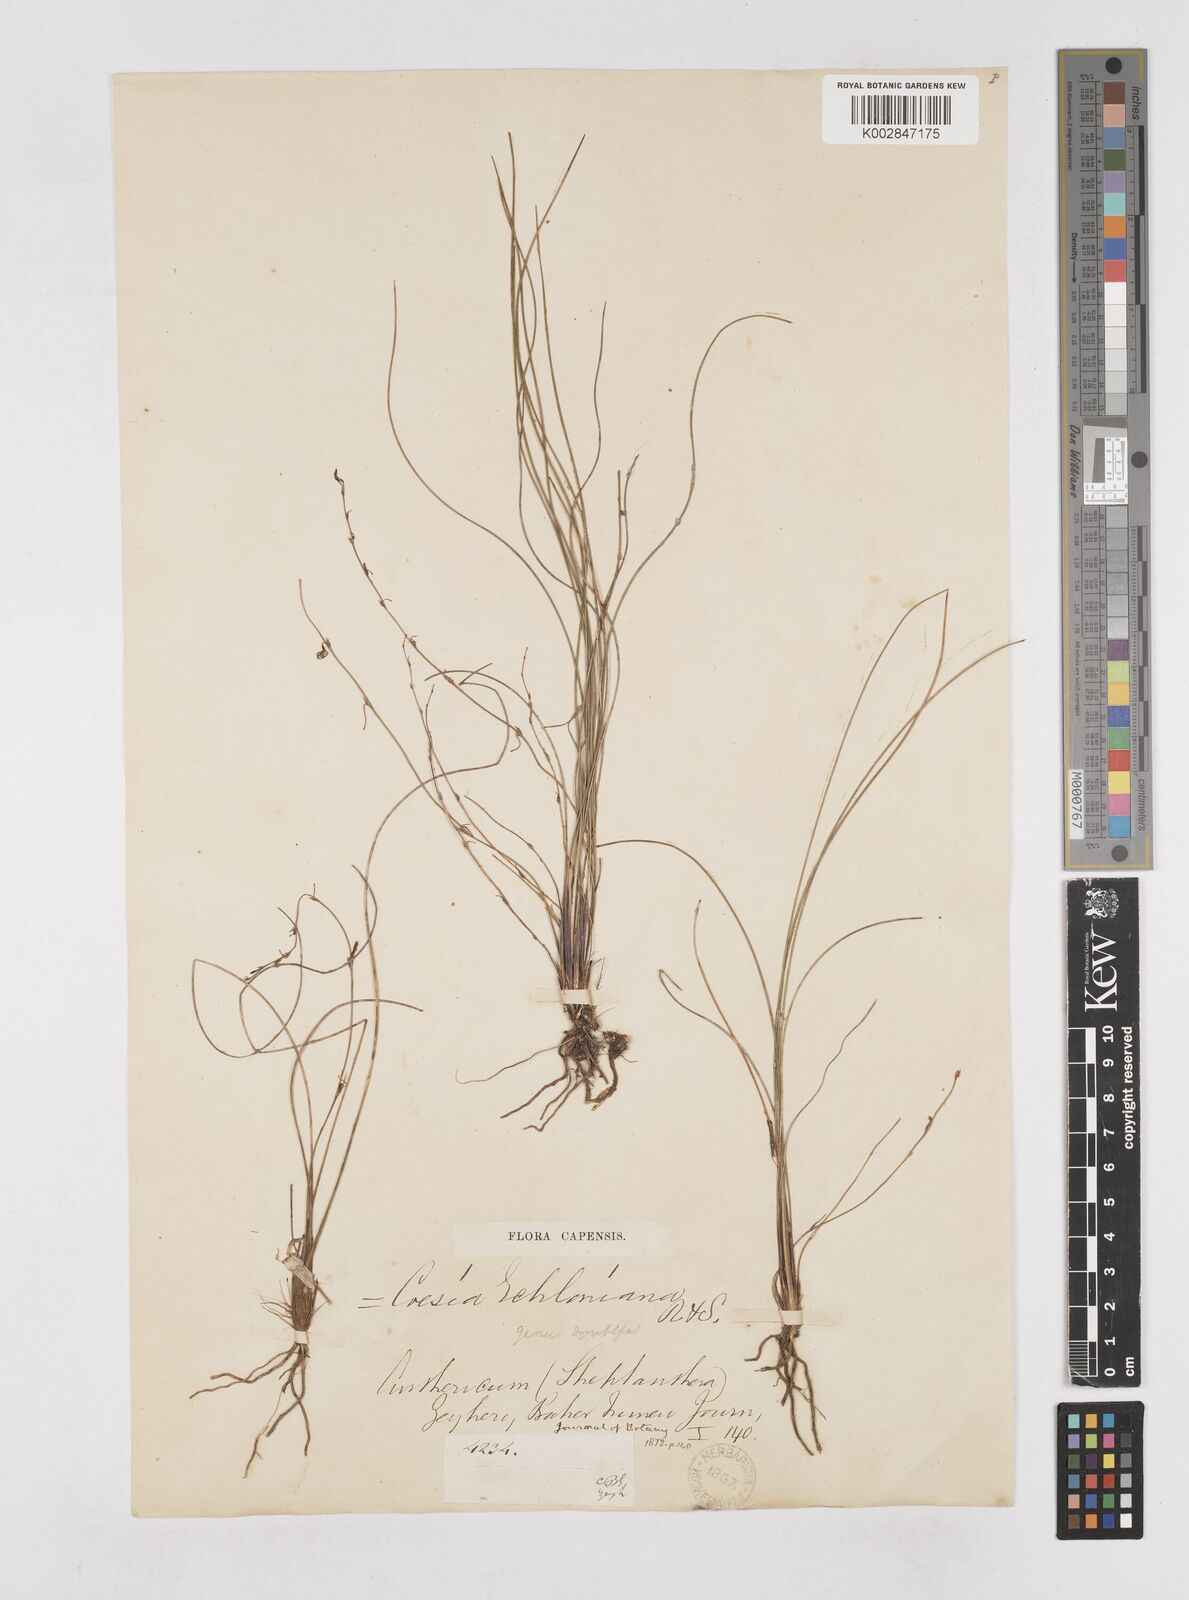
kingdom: Plantae
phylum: Tracheophyta
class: Liliopsida
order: Asparagales
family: Asphodelaceae
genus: Caesia
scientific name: Caesia contorta
